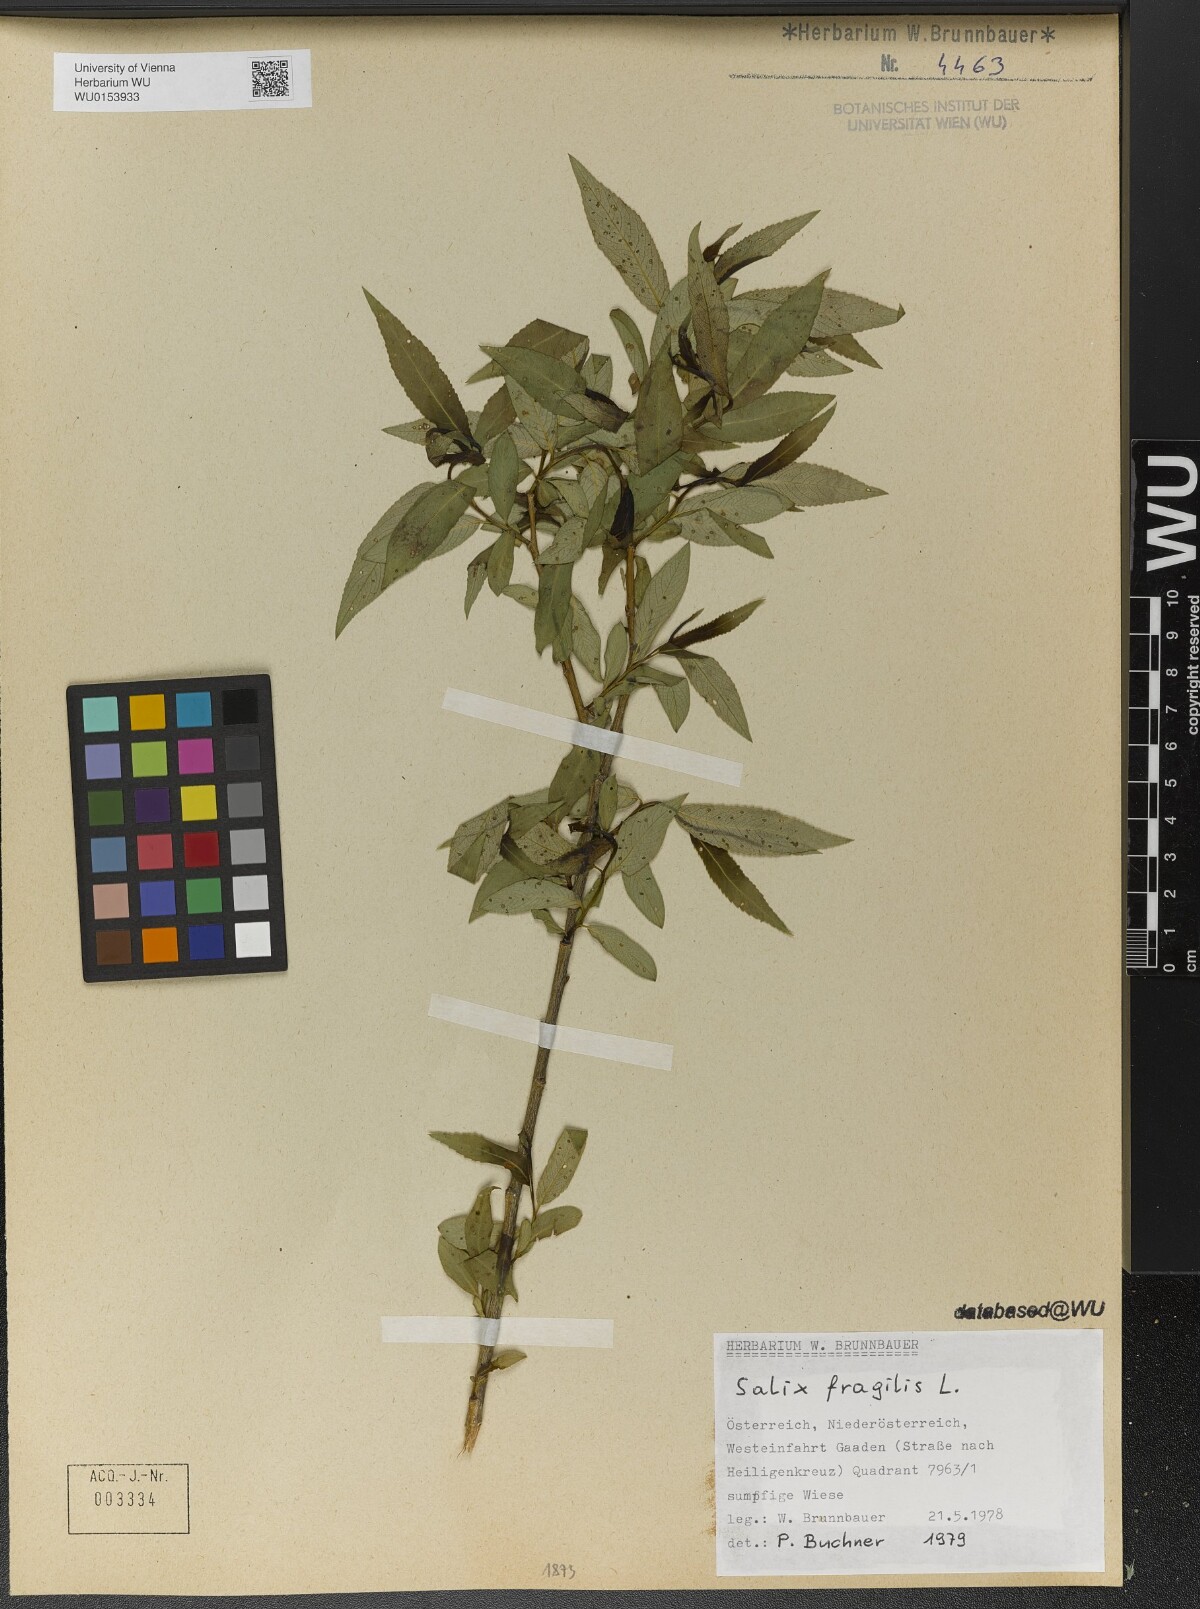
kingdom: Plantae
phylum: Tracheophyta
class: Magnoliopsida
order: Malpighiales
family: Salicaceae
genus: Salix
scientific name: Salix fragilis
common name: Crack willow
